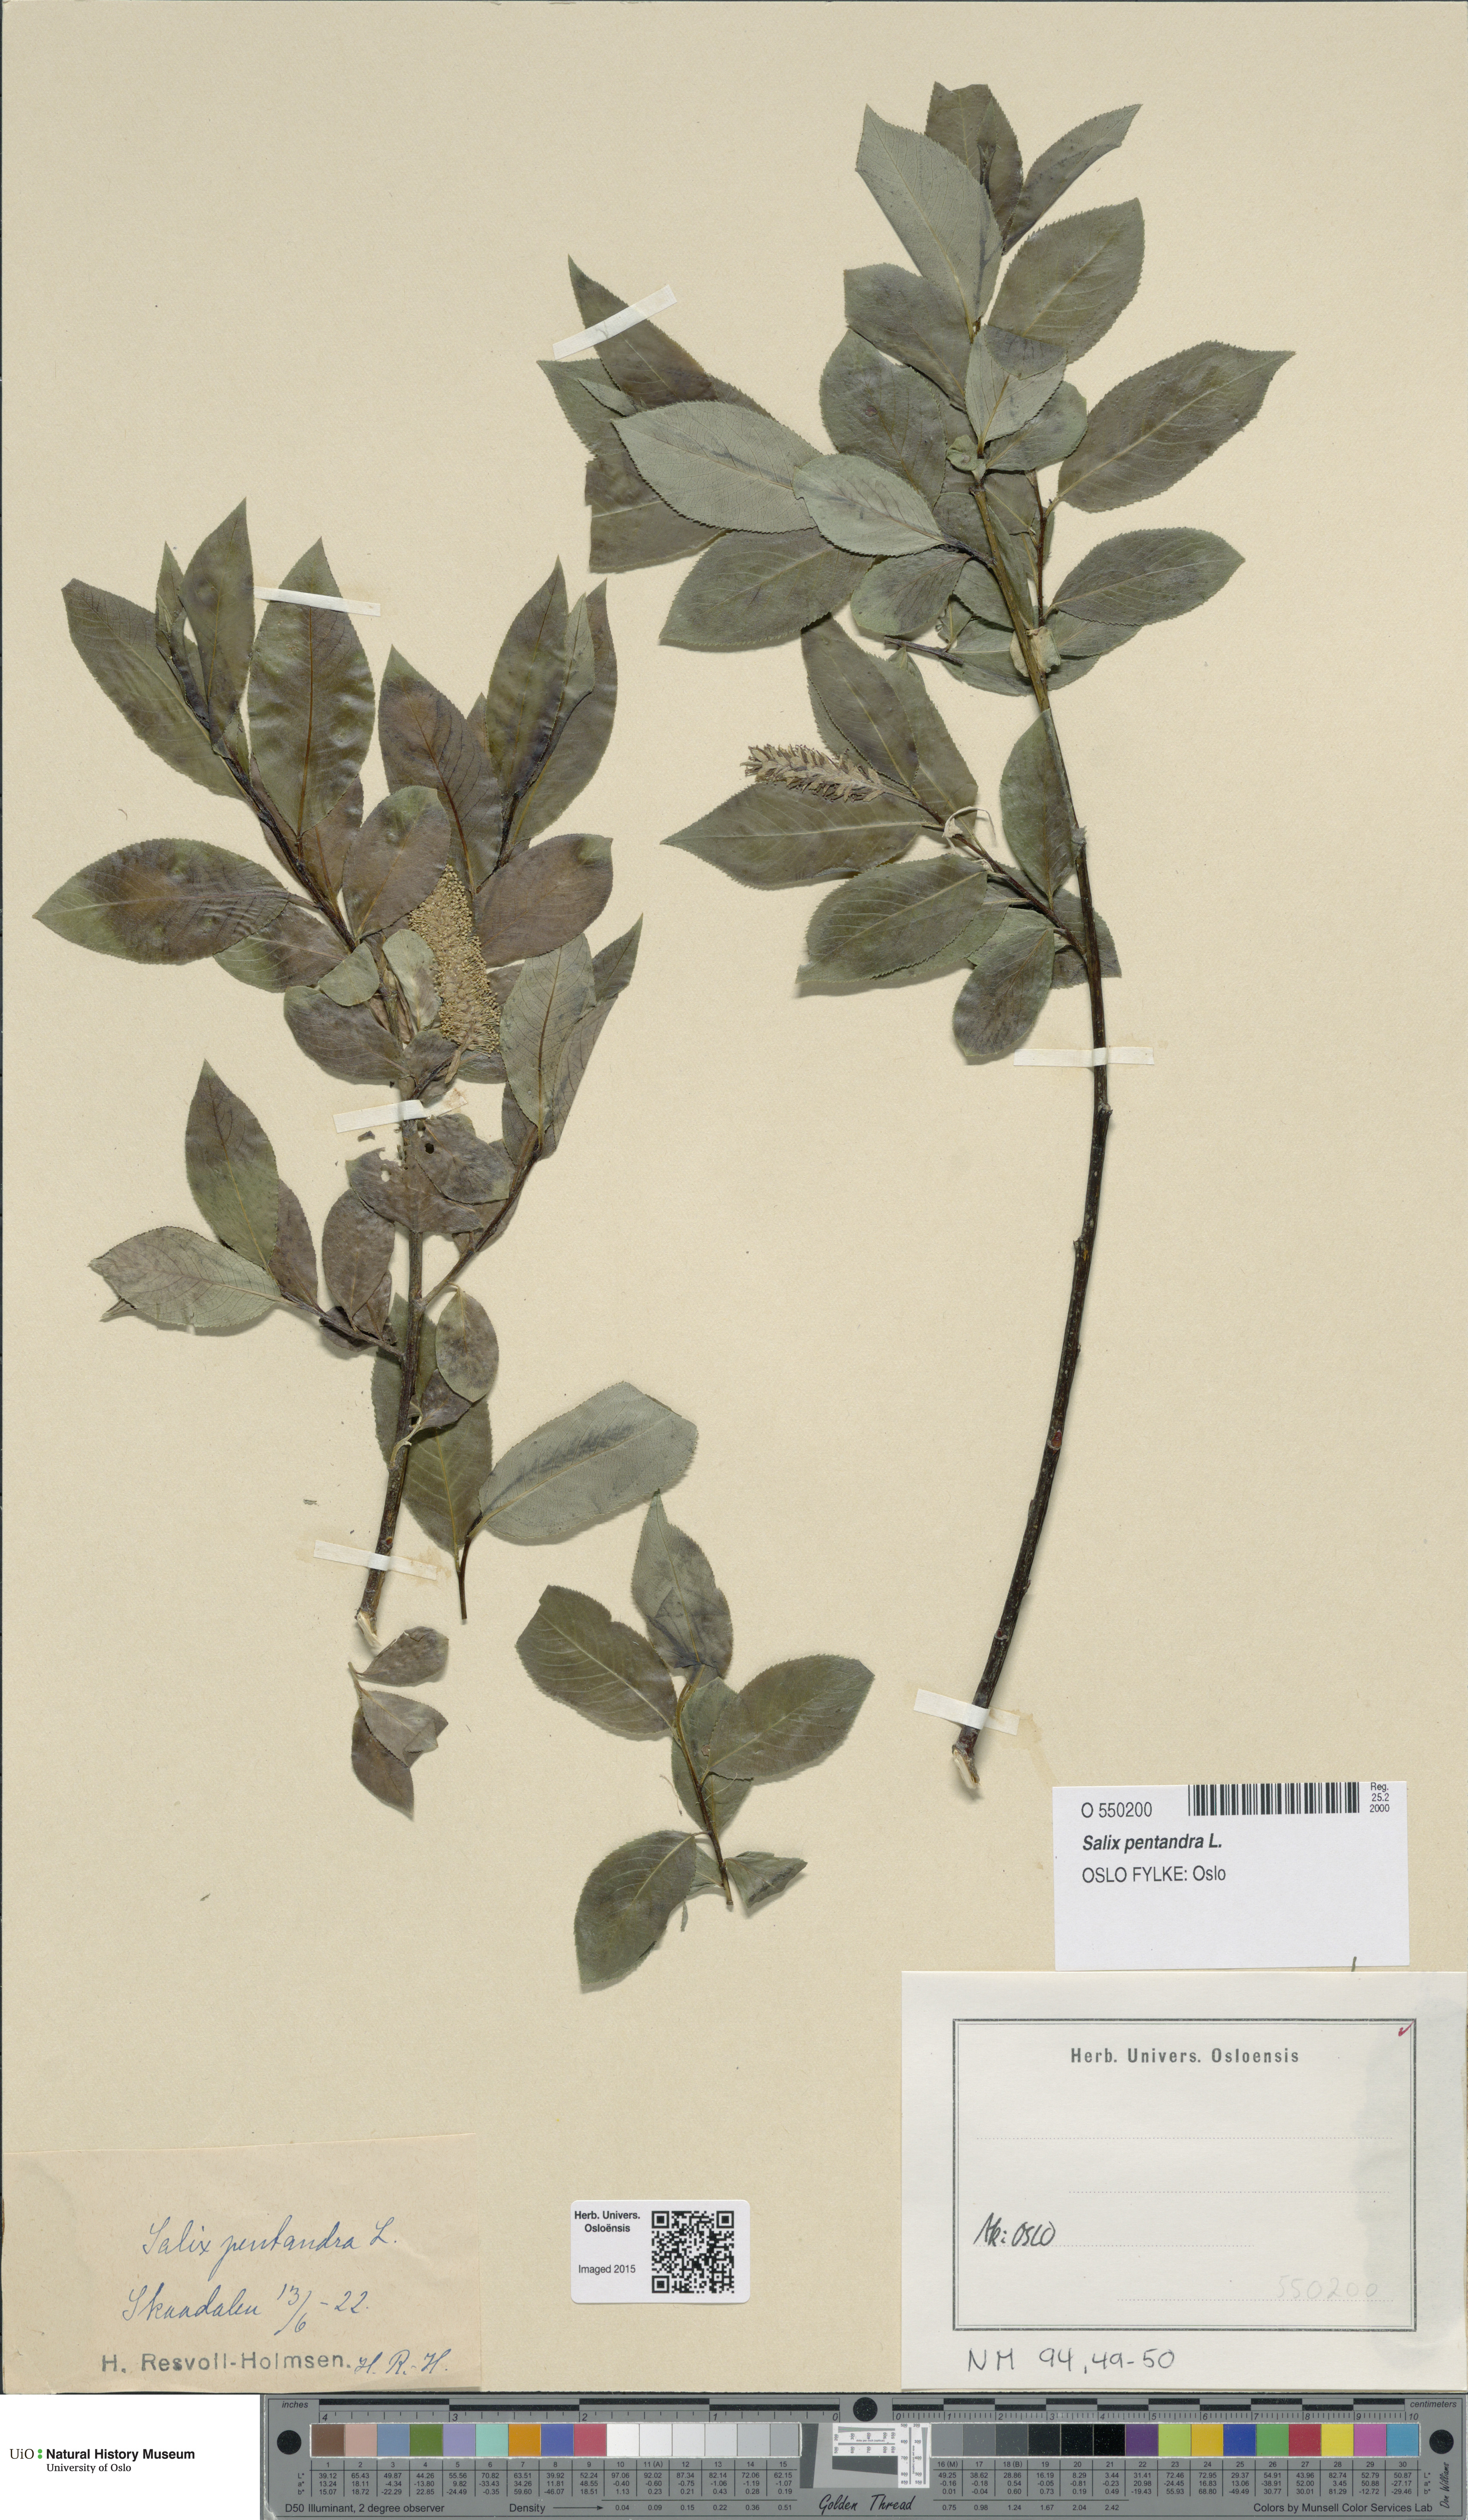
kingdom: Plantae
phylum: Tracheophyta
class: Magnoliopsida
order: Malpighiales
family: Salicaceae
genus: Salix
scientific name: Salix pentandra
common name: Bay willow
